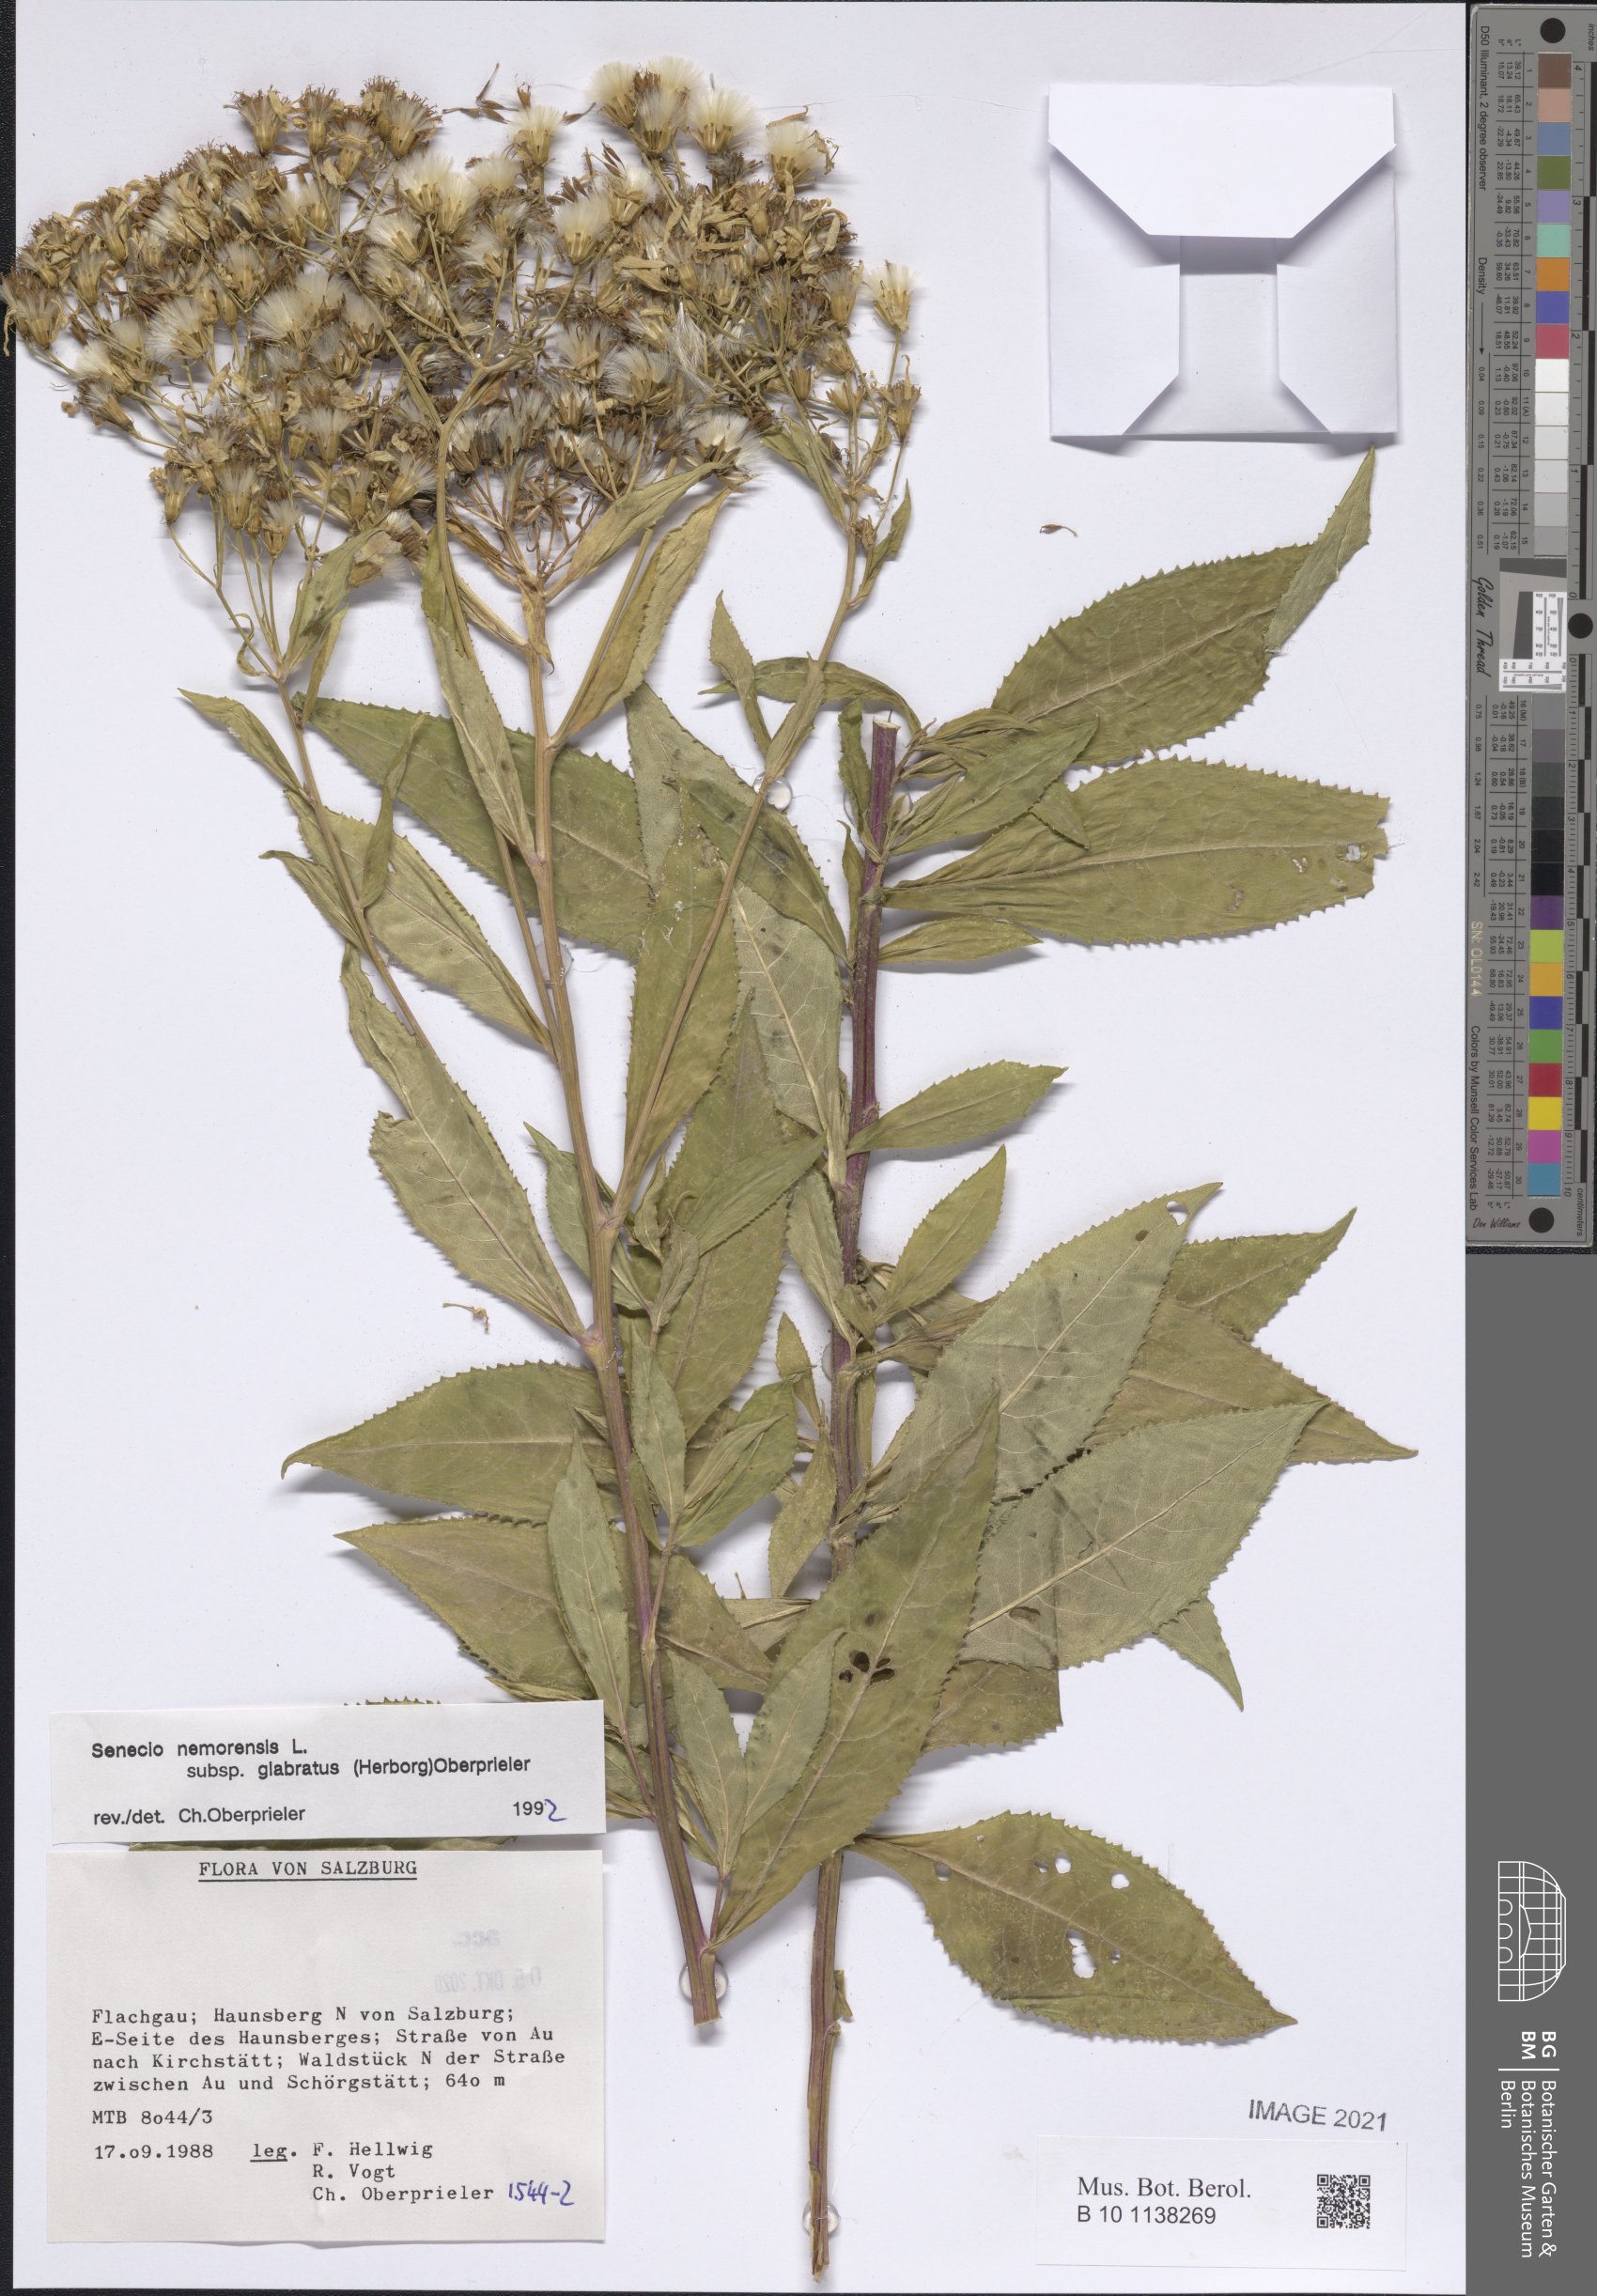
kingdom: Plantae
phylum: Tracheophyta
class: Magnoliopsida
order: Asterales
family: Asteraceae
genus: Senecio
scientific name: Senecio germanicus
